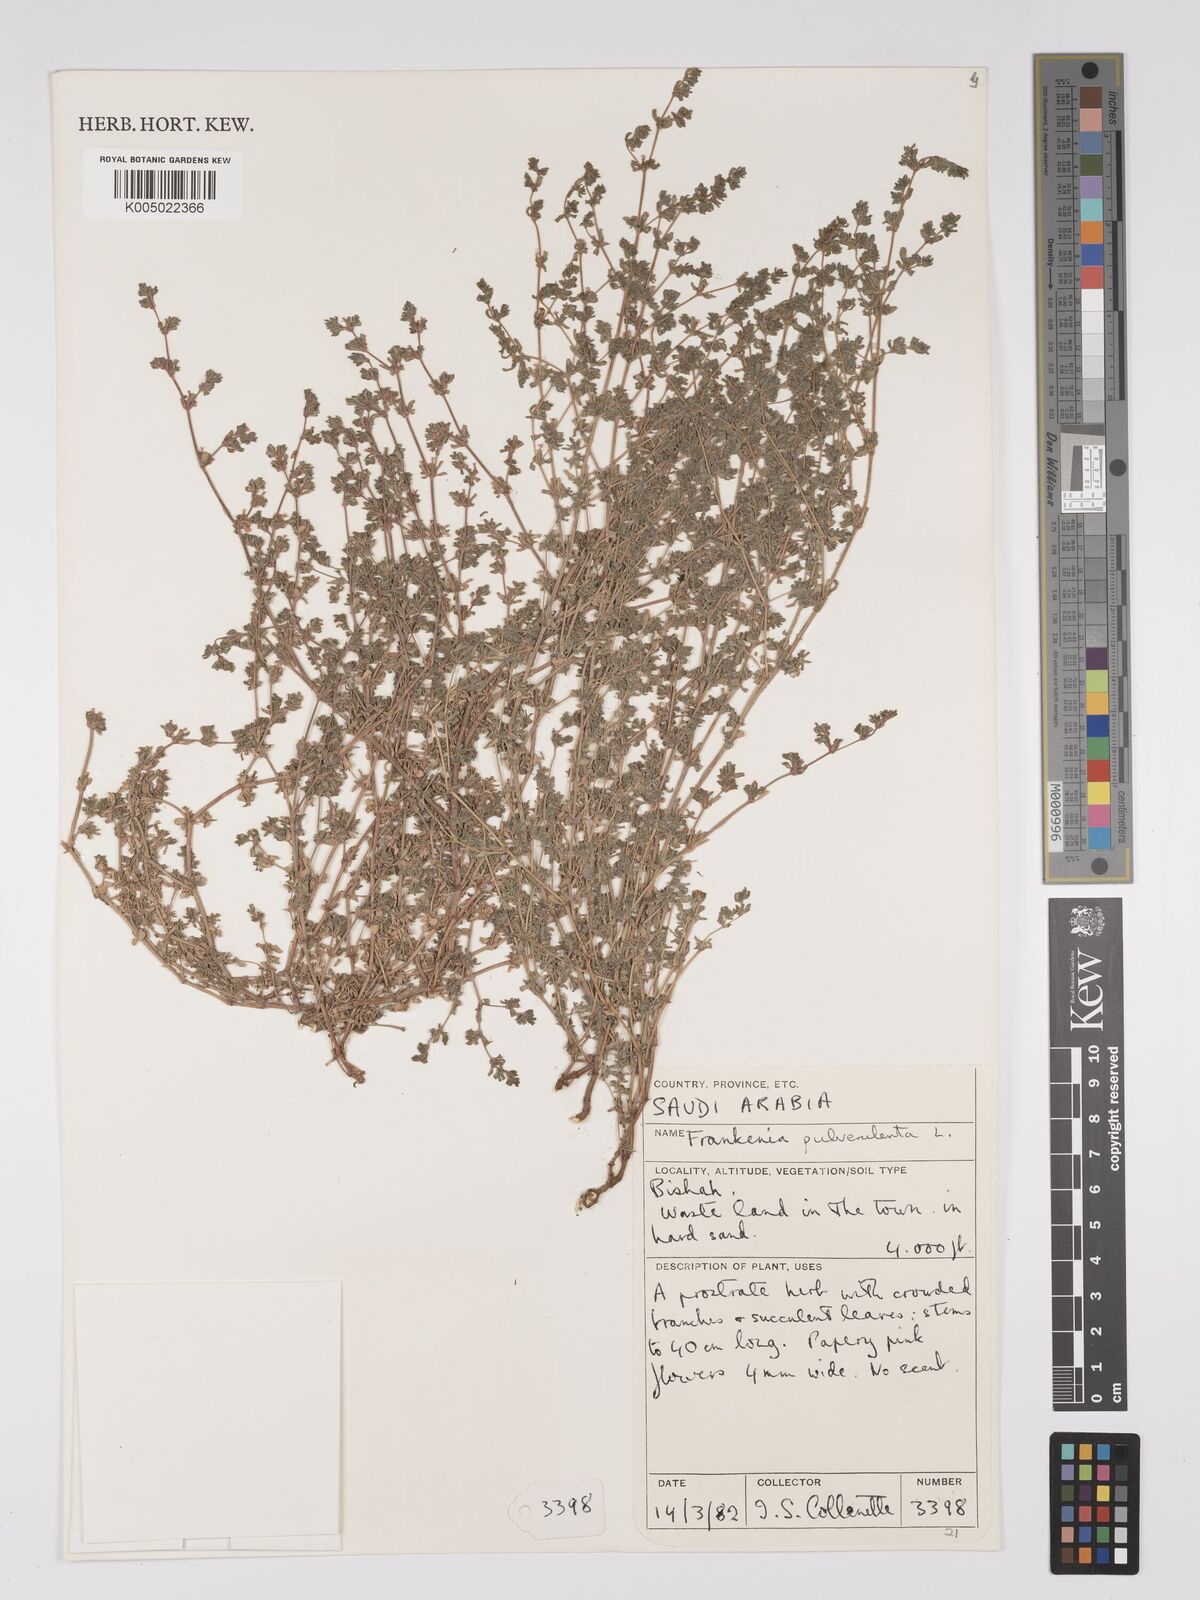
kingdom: Plantae
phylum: Tracheophyta
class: Magnoliopsida
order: Caryophyllales
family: Frankeniaceae
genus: Frankenia
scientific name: Frankenia pulverulenta
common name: European seaheath
